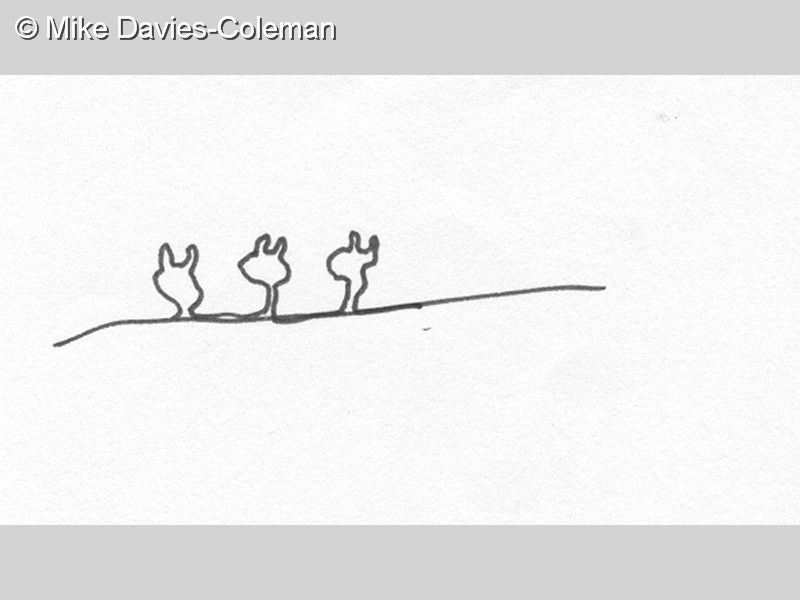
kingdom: Animalia
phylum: Chordata
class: Ascidiacea
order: Stolidobranchia
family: Styelidae
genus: Stolonica
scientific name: Stolonica
